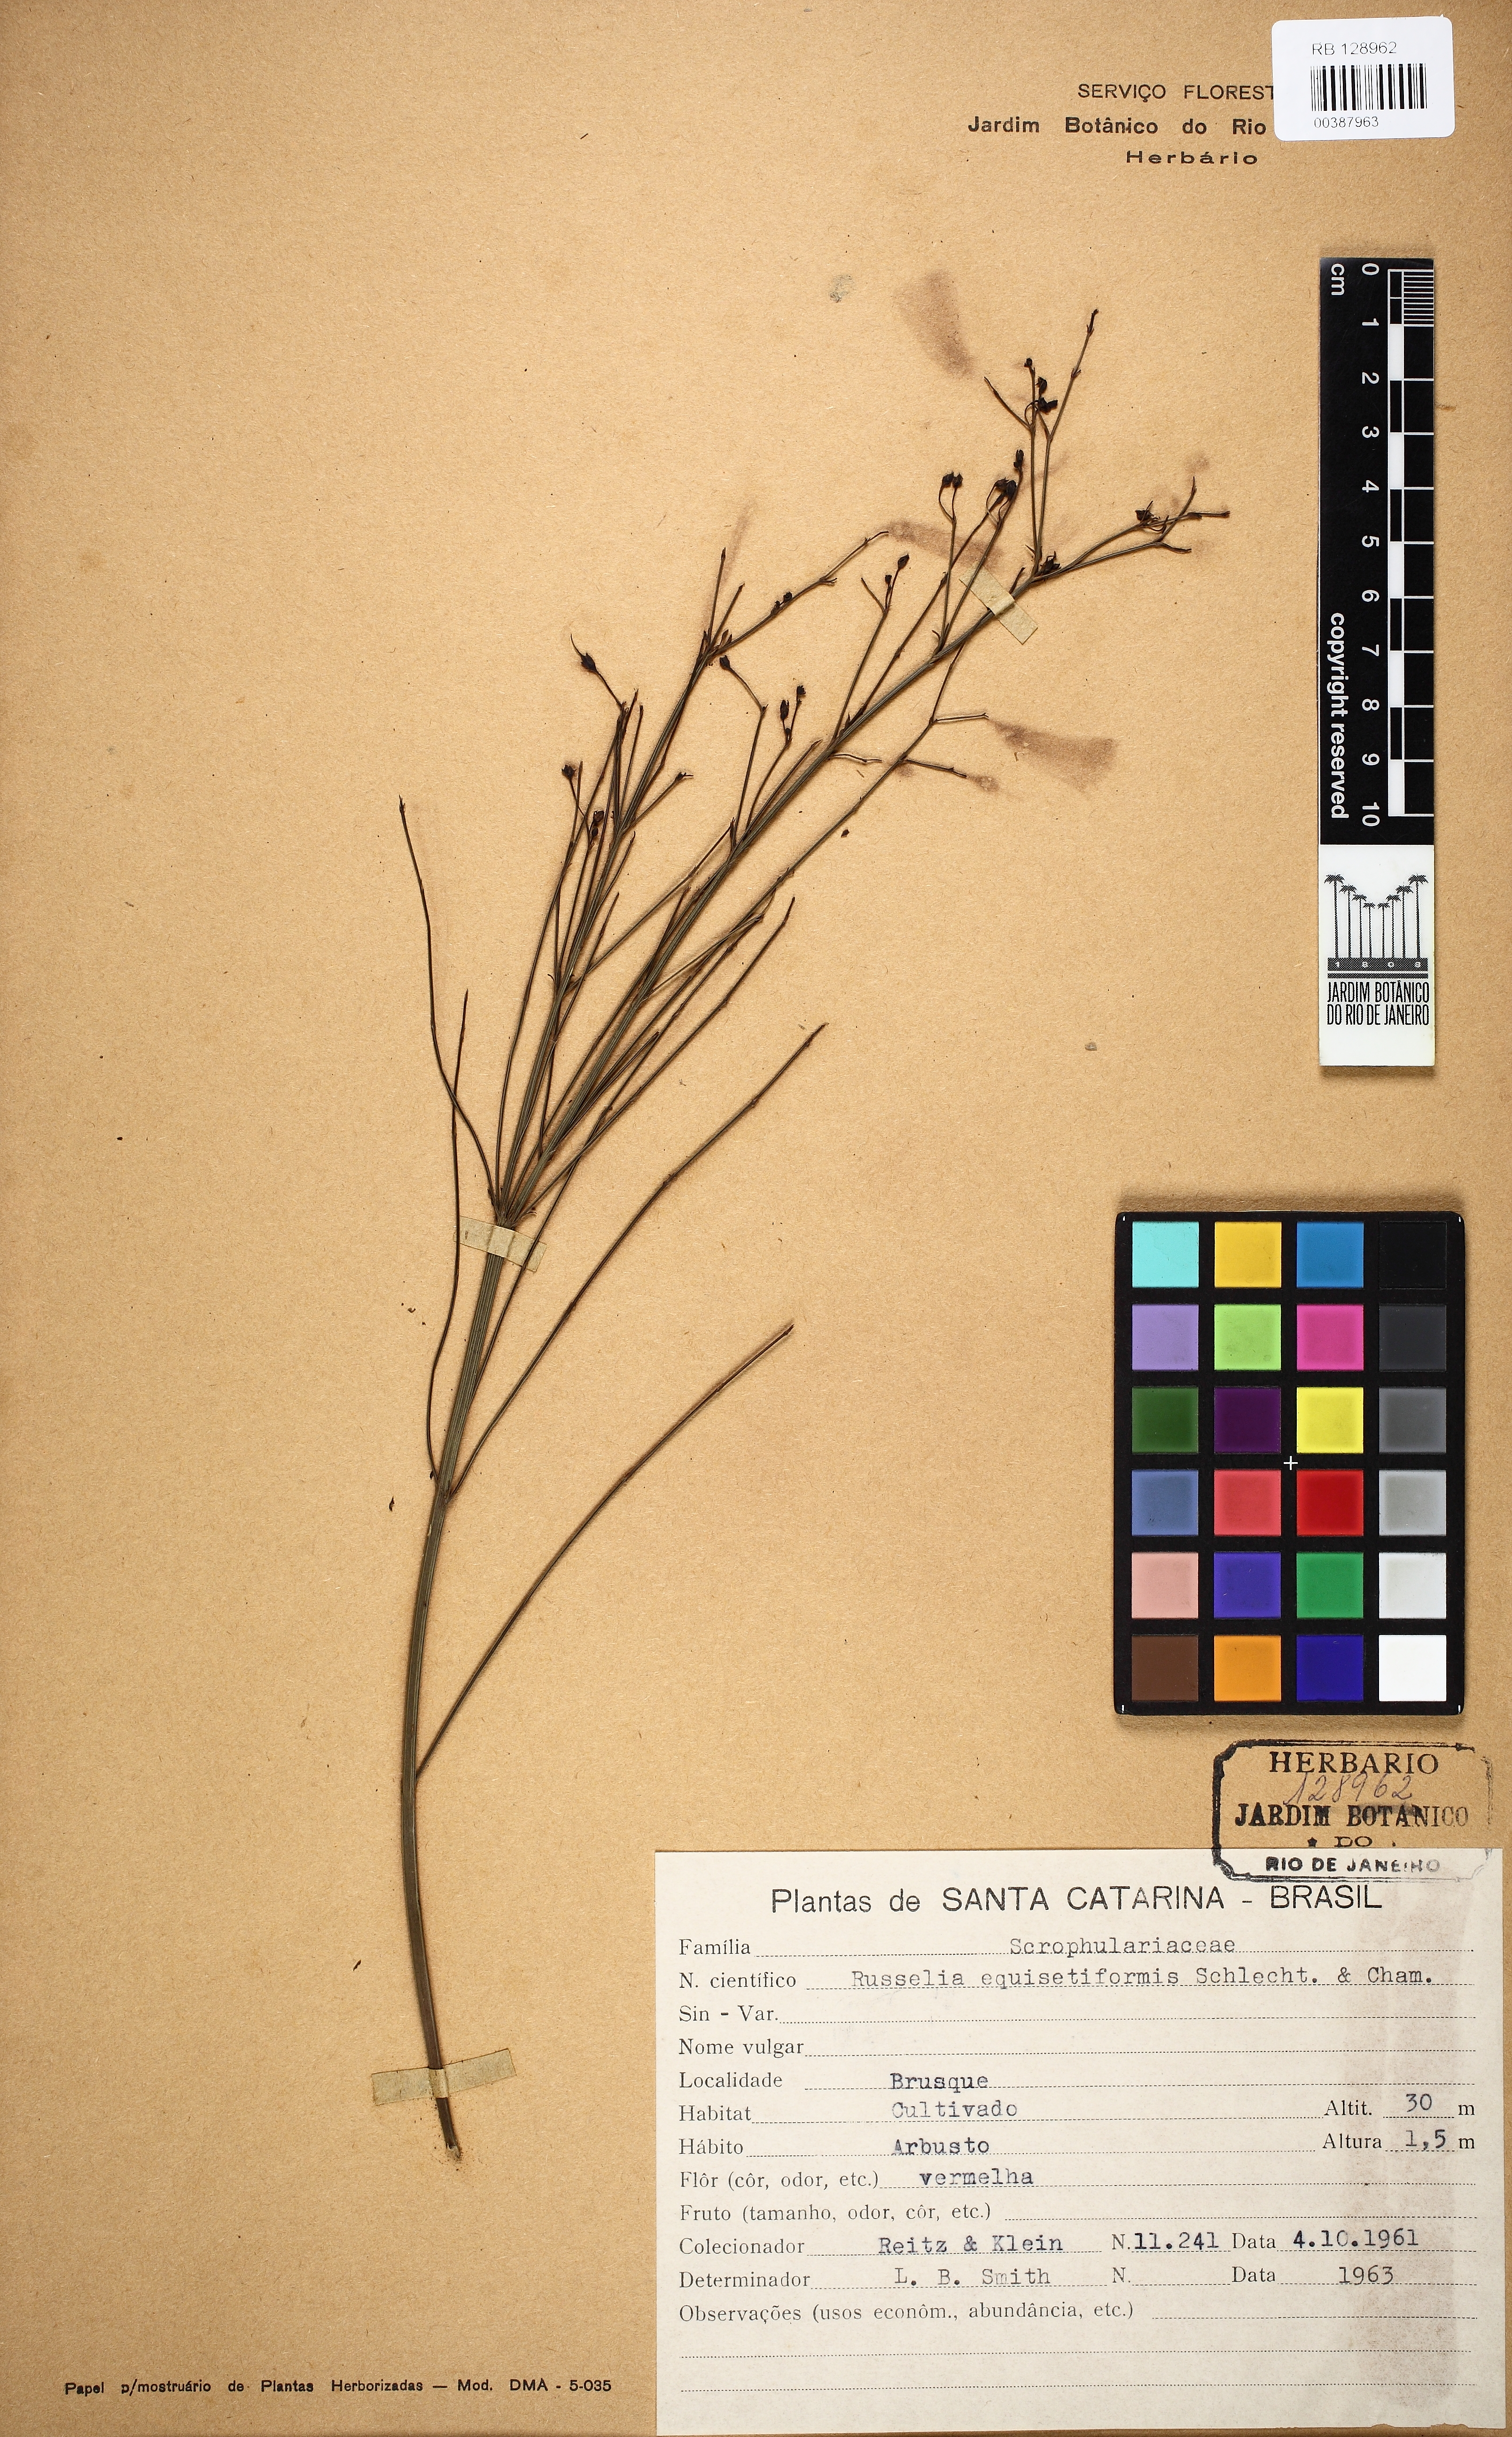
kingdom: Plantae
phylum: Tracheophyta
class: Magnoliopsida
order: Lamiales
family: Plantaginaceae
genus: Russelia
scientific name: Russelia equisetiformis
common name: Fountainbush
